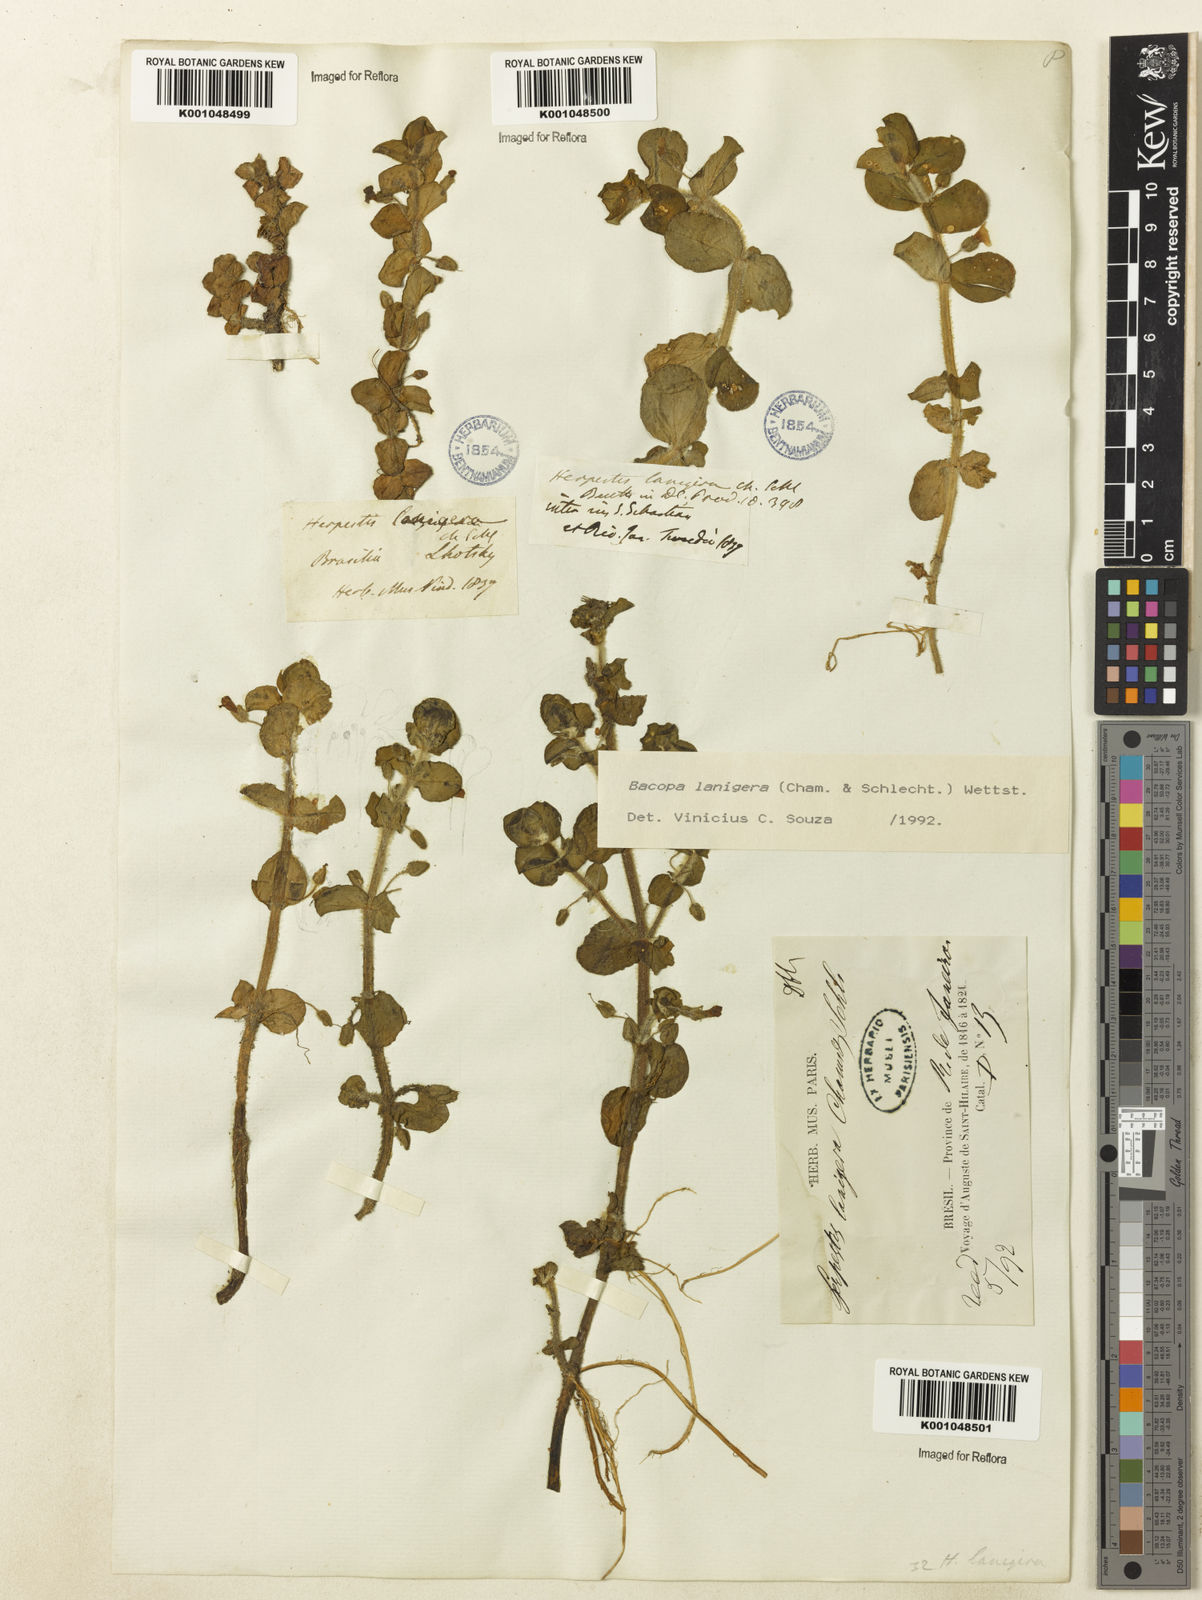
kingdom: Plantae
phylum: Tracheophyta
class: Magnoliopsida
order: Lamiales
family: Plantaginaceae
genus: Bacopa
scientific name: Bacopa lanigera
